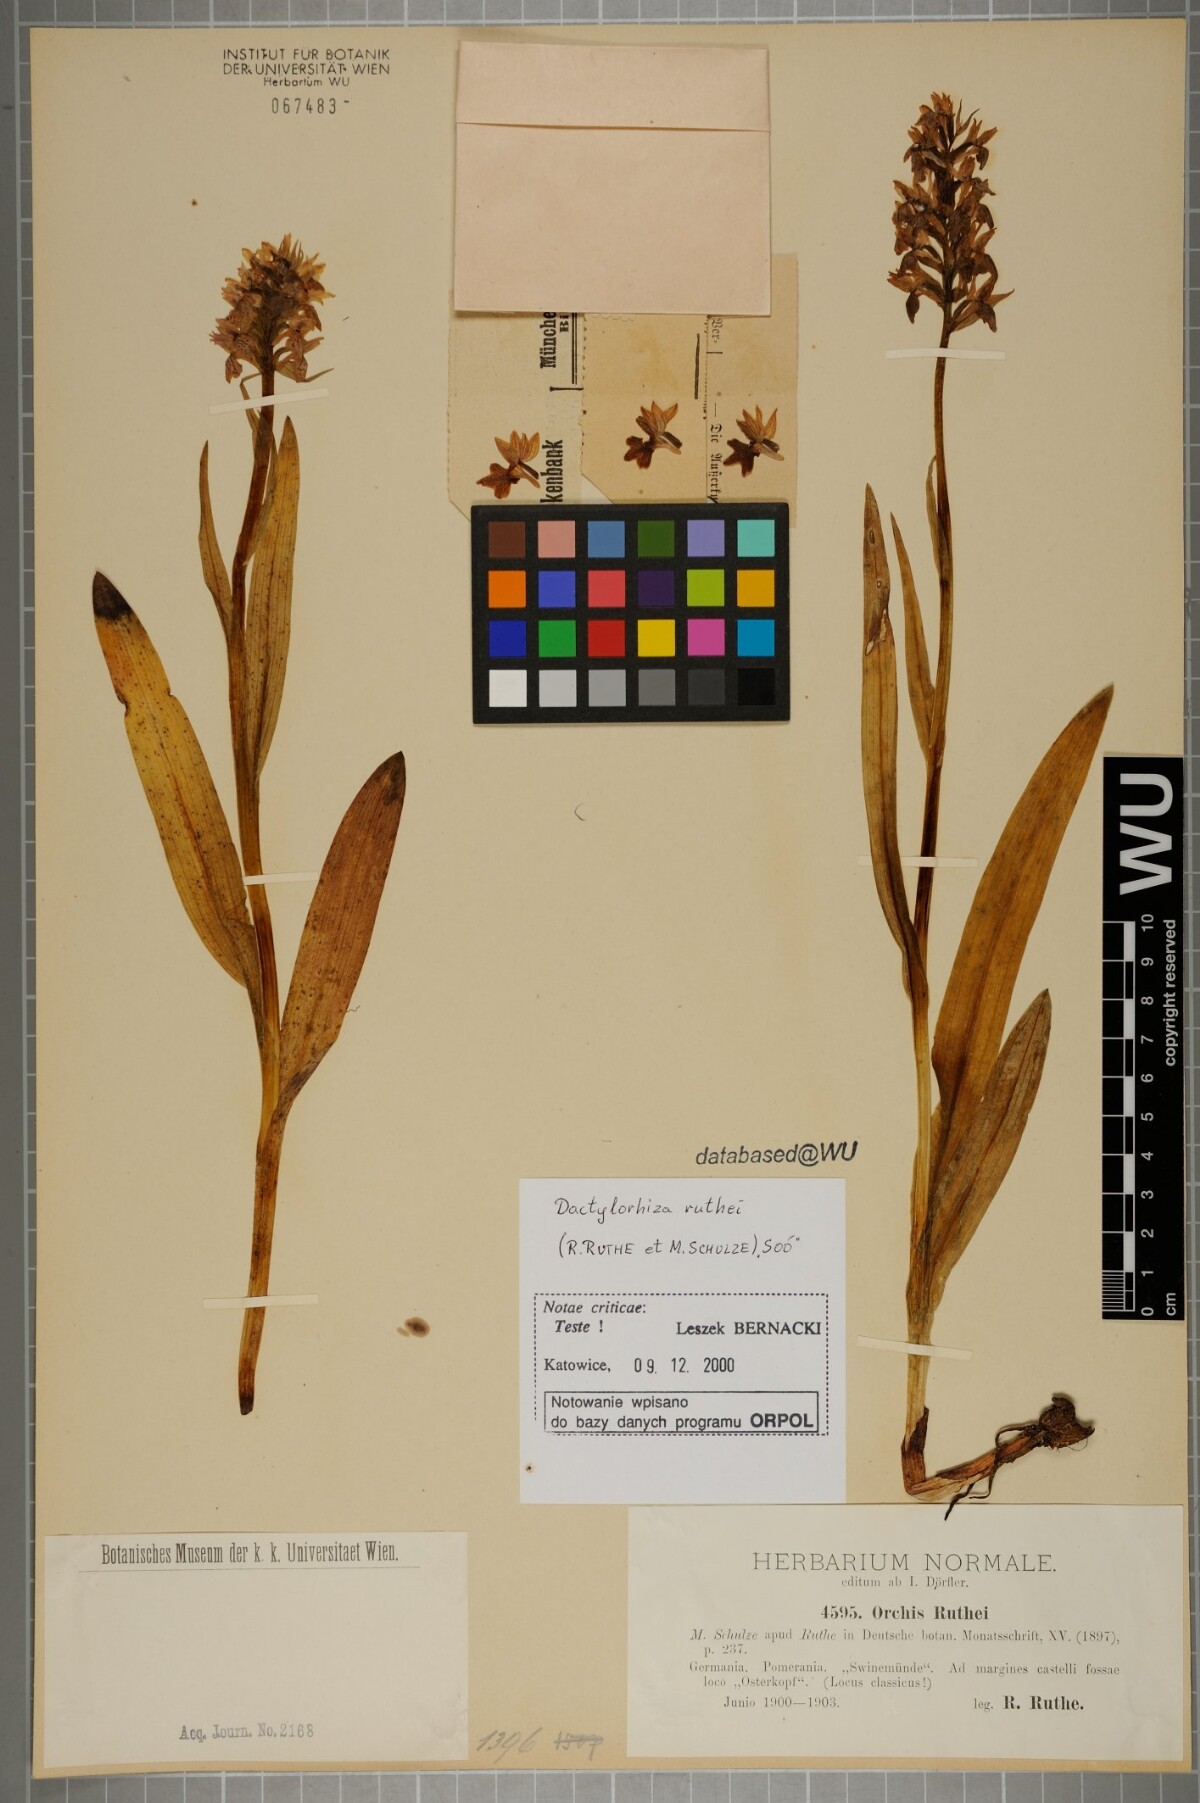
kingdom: Plantae
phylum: Tracheophyta
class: Liliopsida
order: Asparagales
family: Orchidaceae
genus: Dactylorhiza
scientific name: Dactylorhiza kerneriorum
